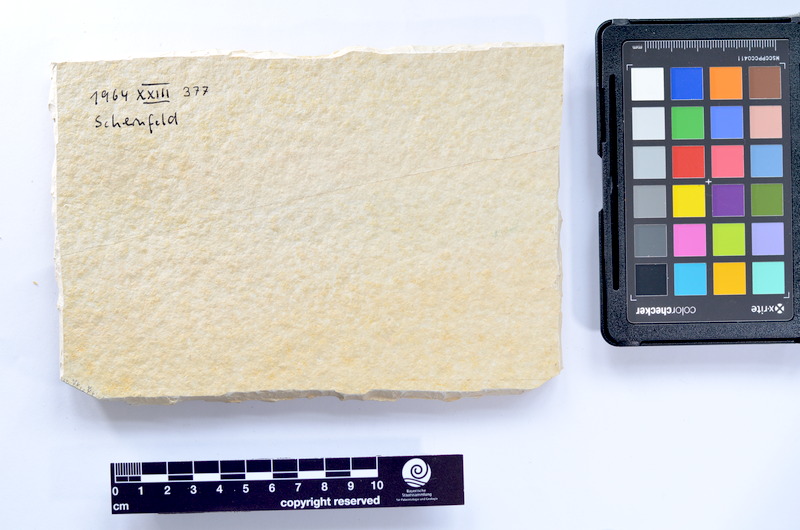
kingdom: Animalia
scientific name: Animalia
